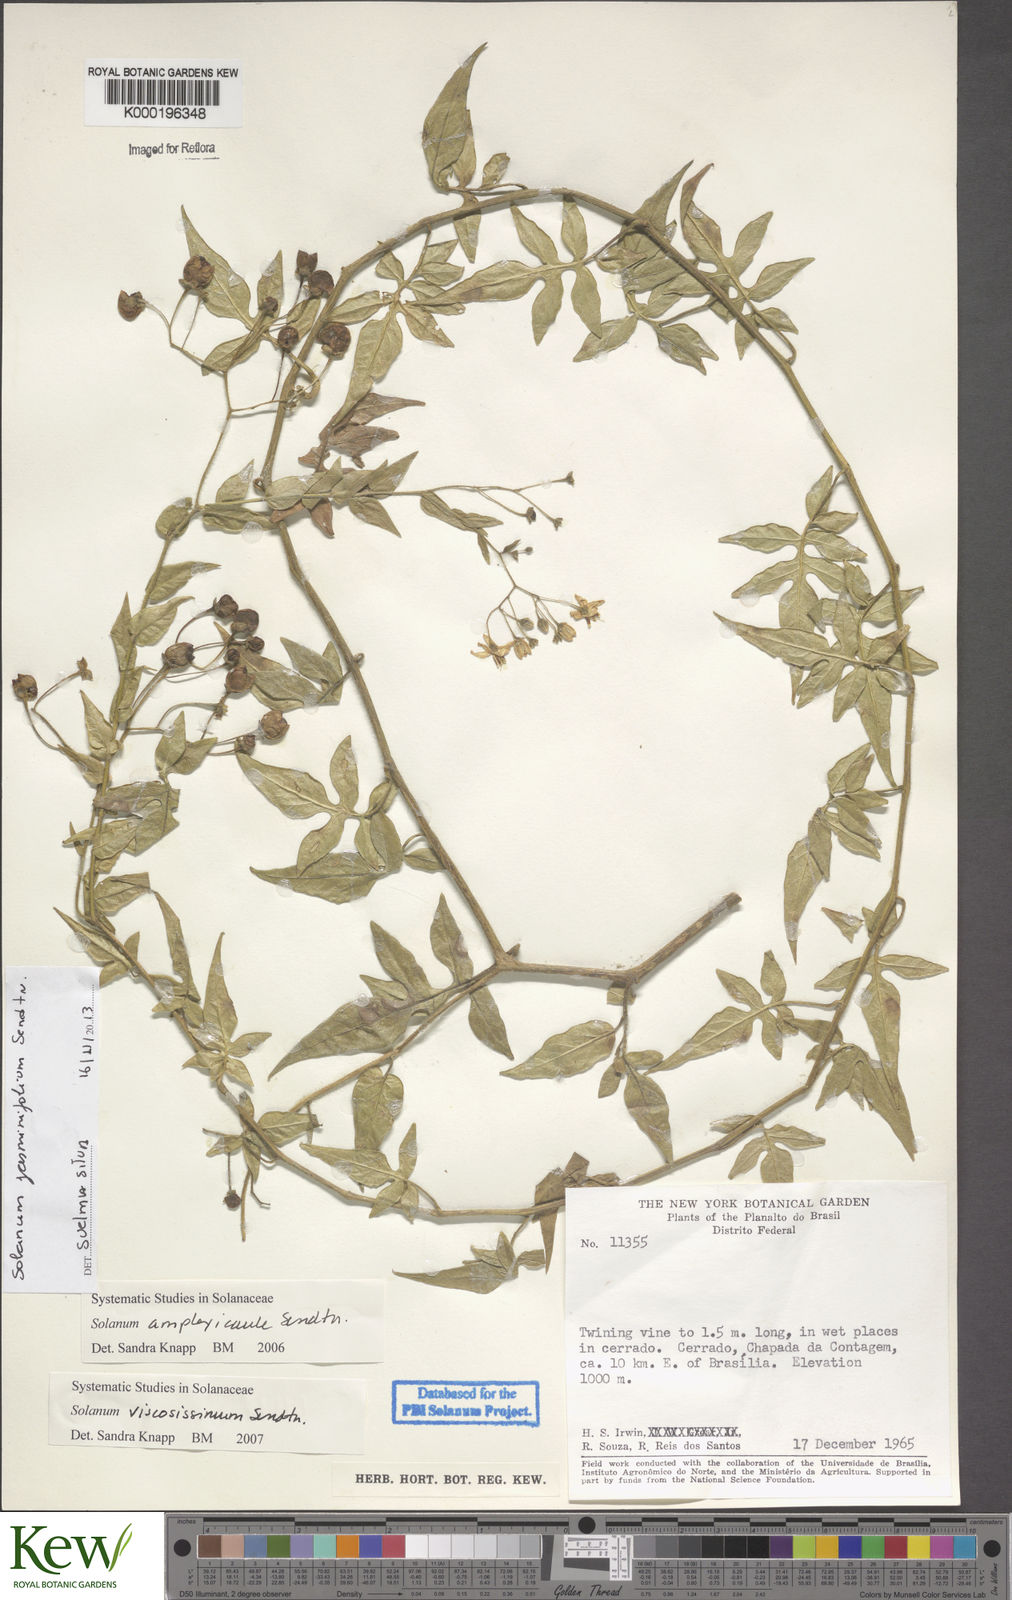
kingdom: Plantae
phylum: Tracheophyta
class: Magnoliopsida
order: Solanales
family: Solanaceae
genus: Solanum
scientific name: Solanum viscosissimum
